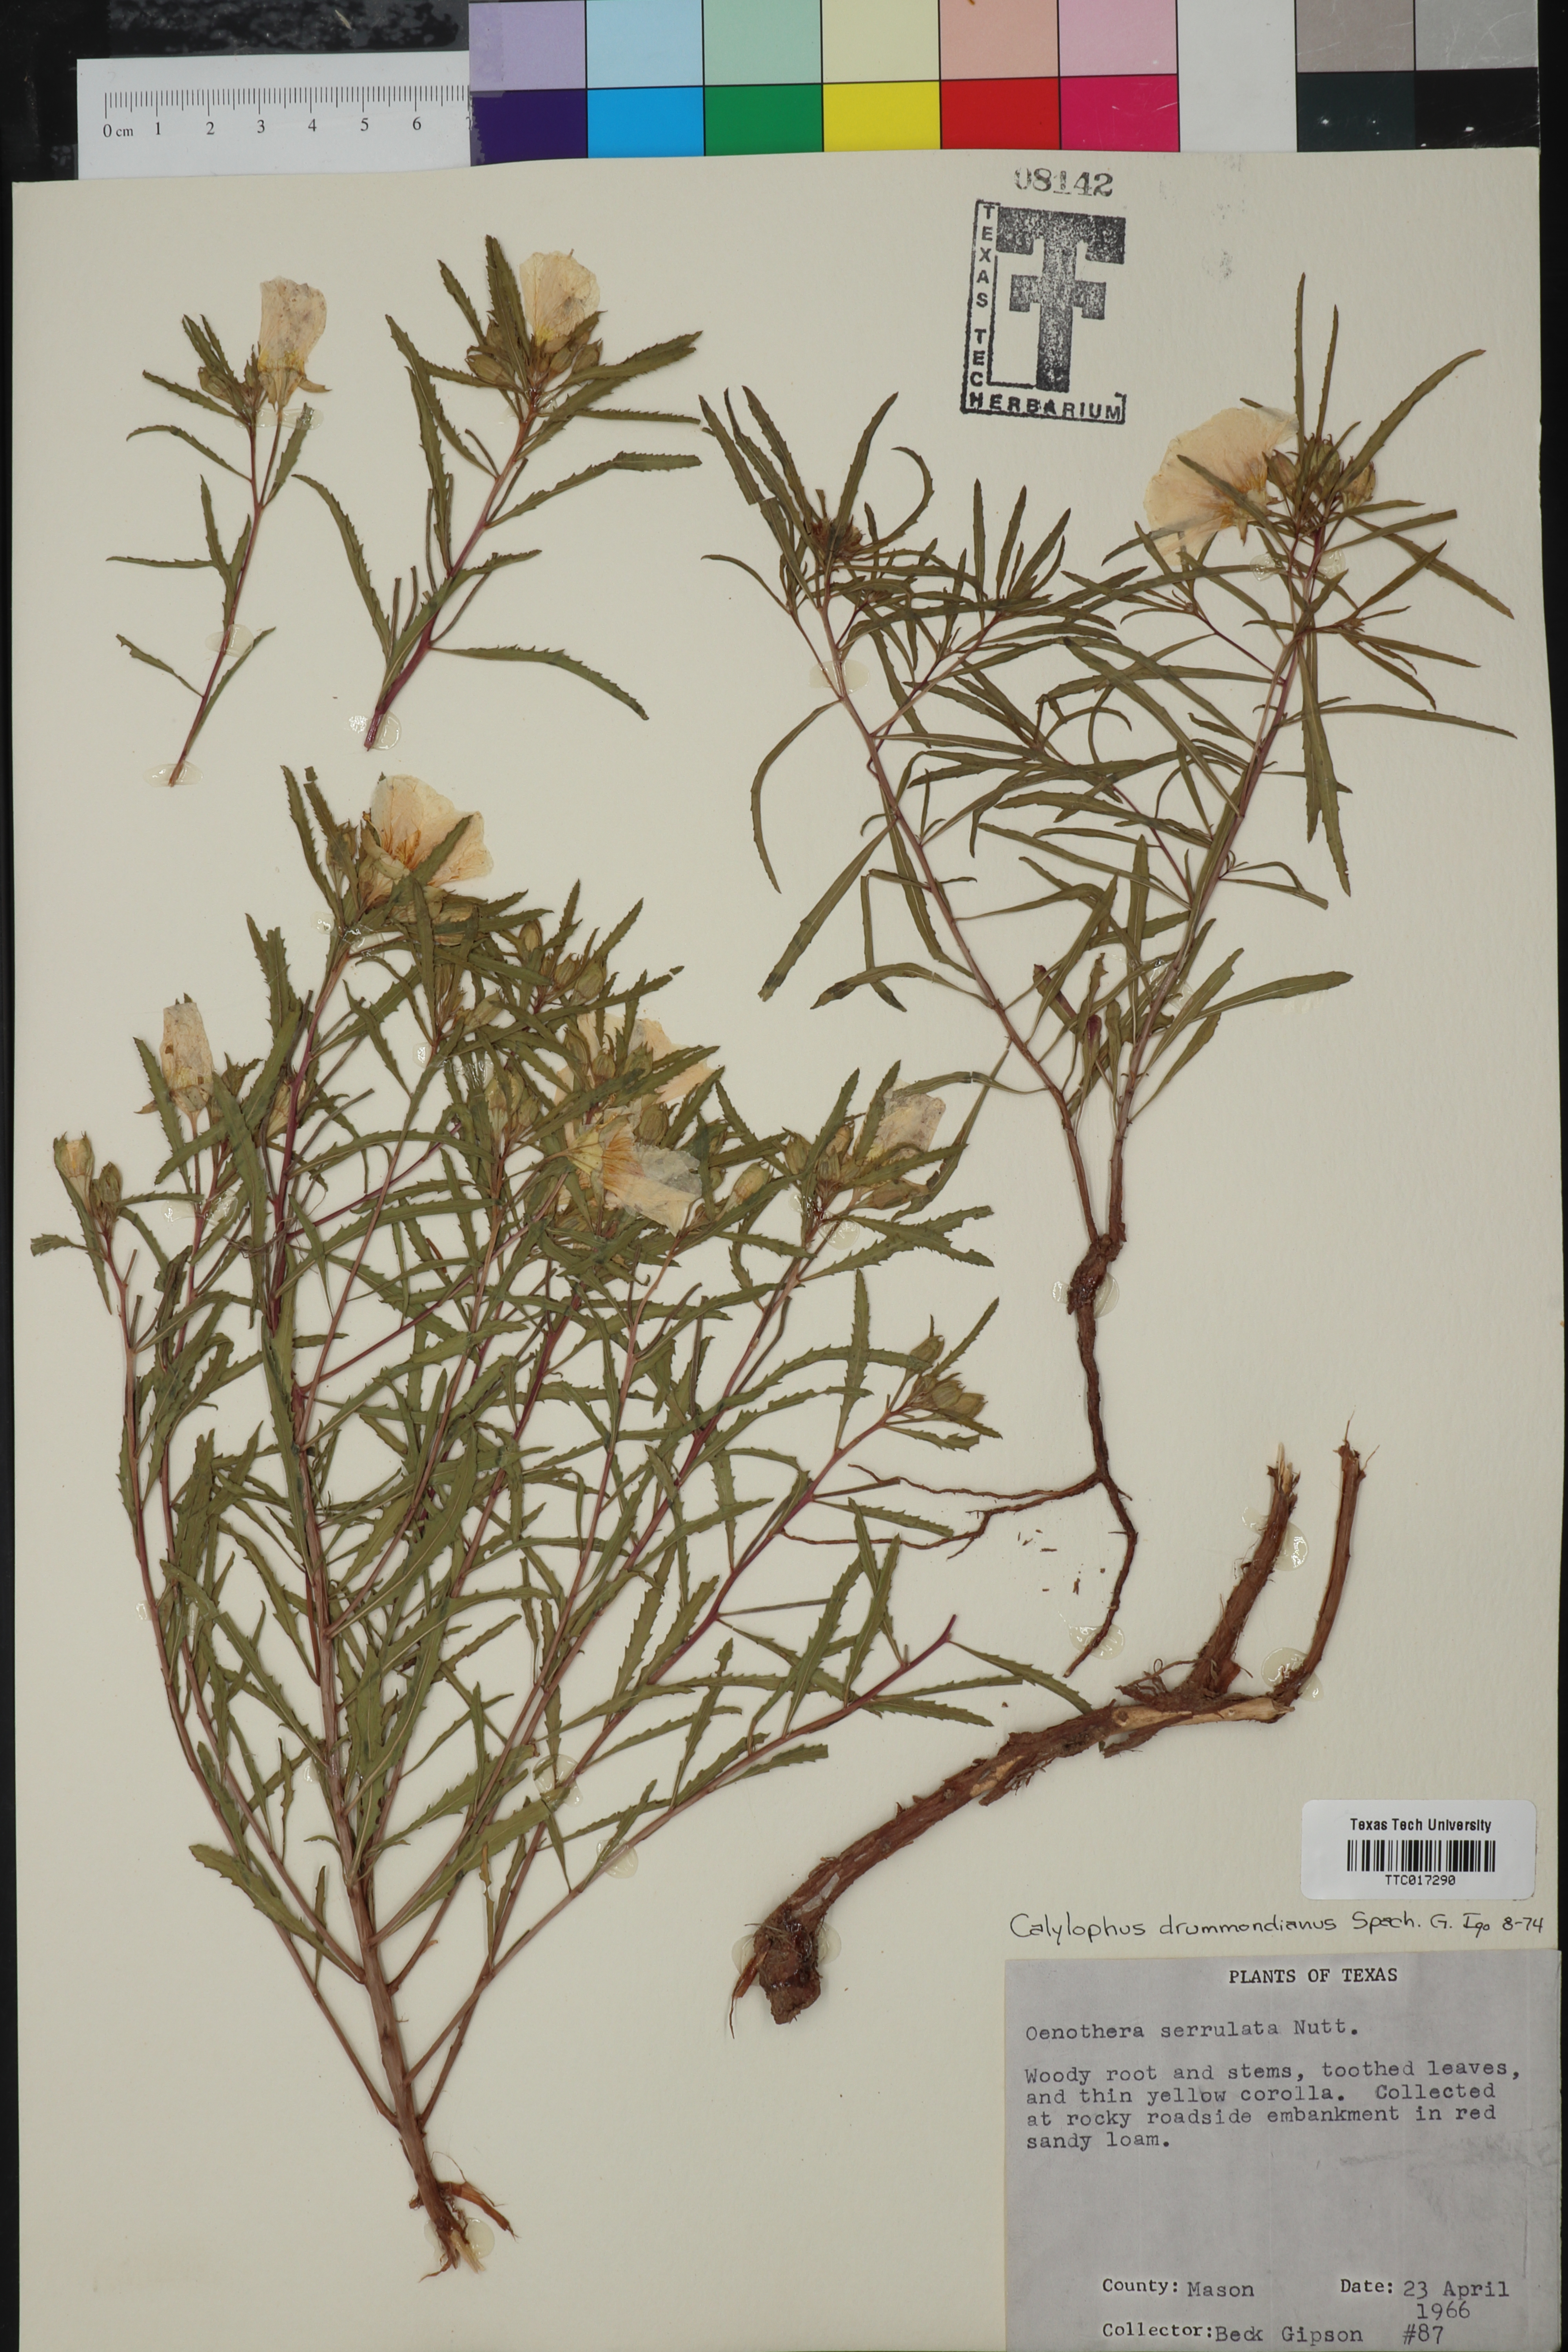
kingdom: Plantae
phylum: Tracheophyta
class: Magnoliopsida
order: Myrtales
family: Onagraceae
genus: Oenothera
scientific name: Oenothera serrulata
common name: Half-shrub calylophus
